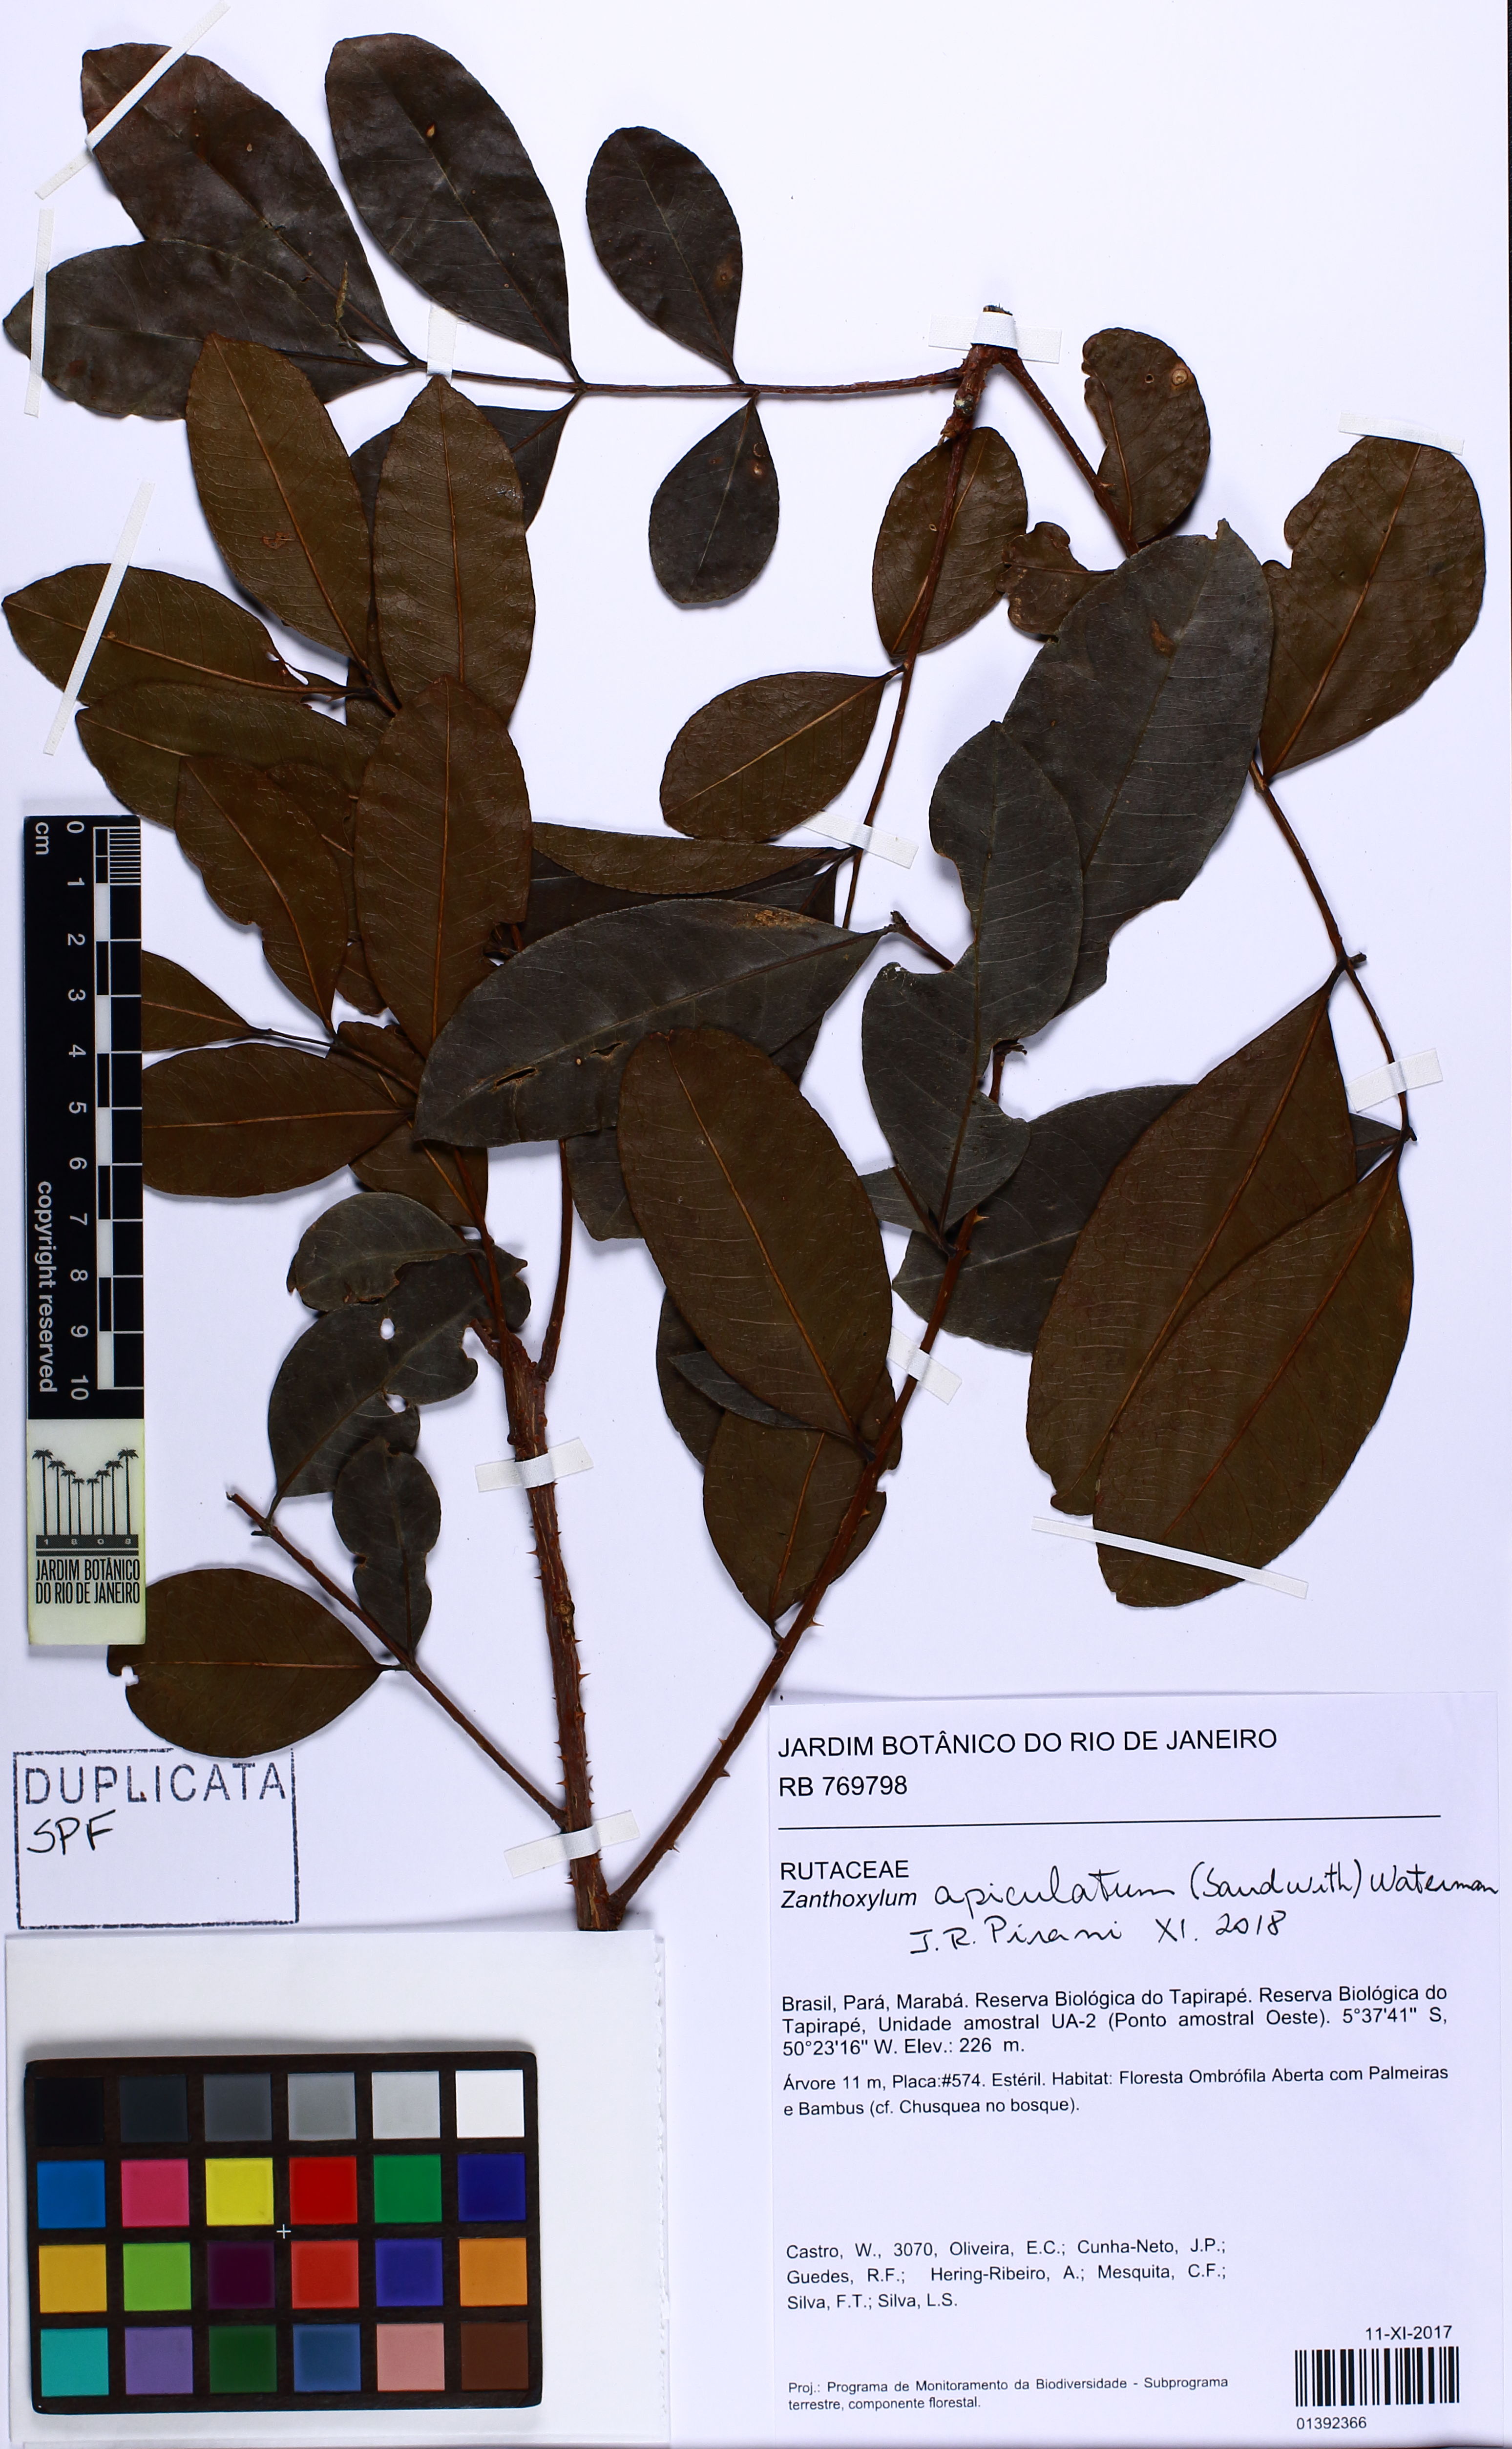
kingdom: Plantae
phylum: Tracheophyta
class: Magnoliopsida
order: Sapindales
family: Rutaceae
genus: Zanthoxylum
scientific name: Zanthoxylum apiculatum
